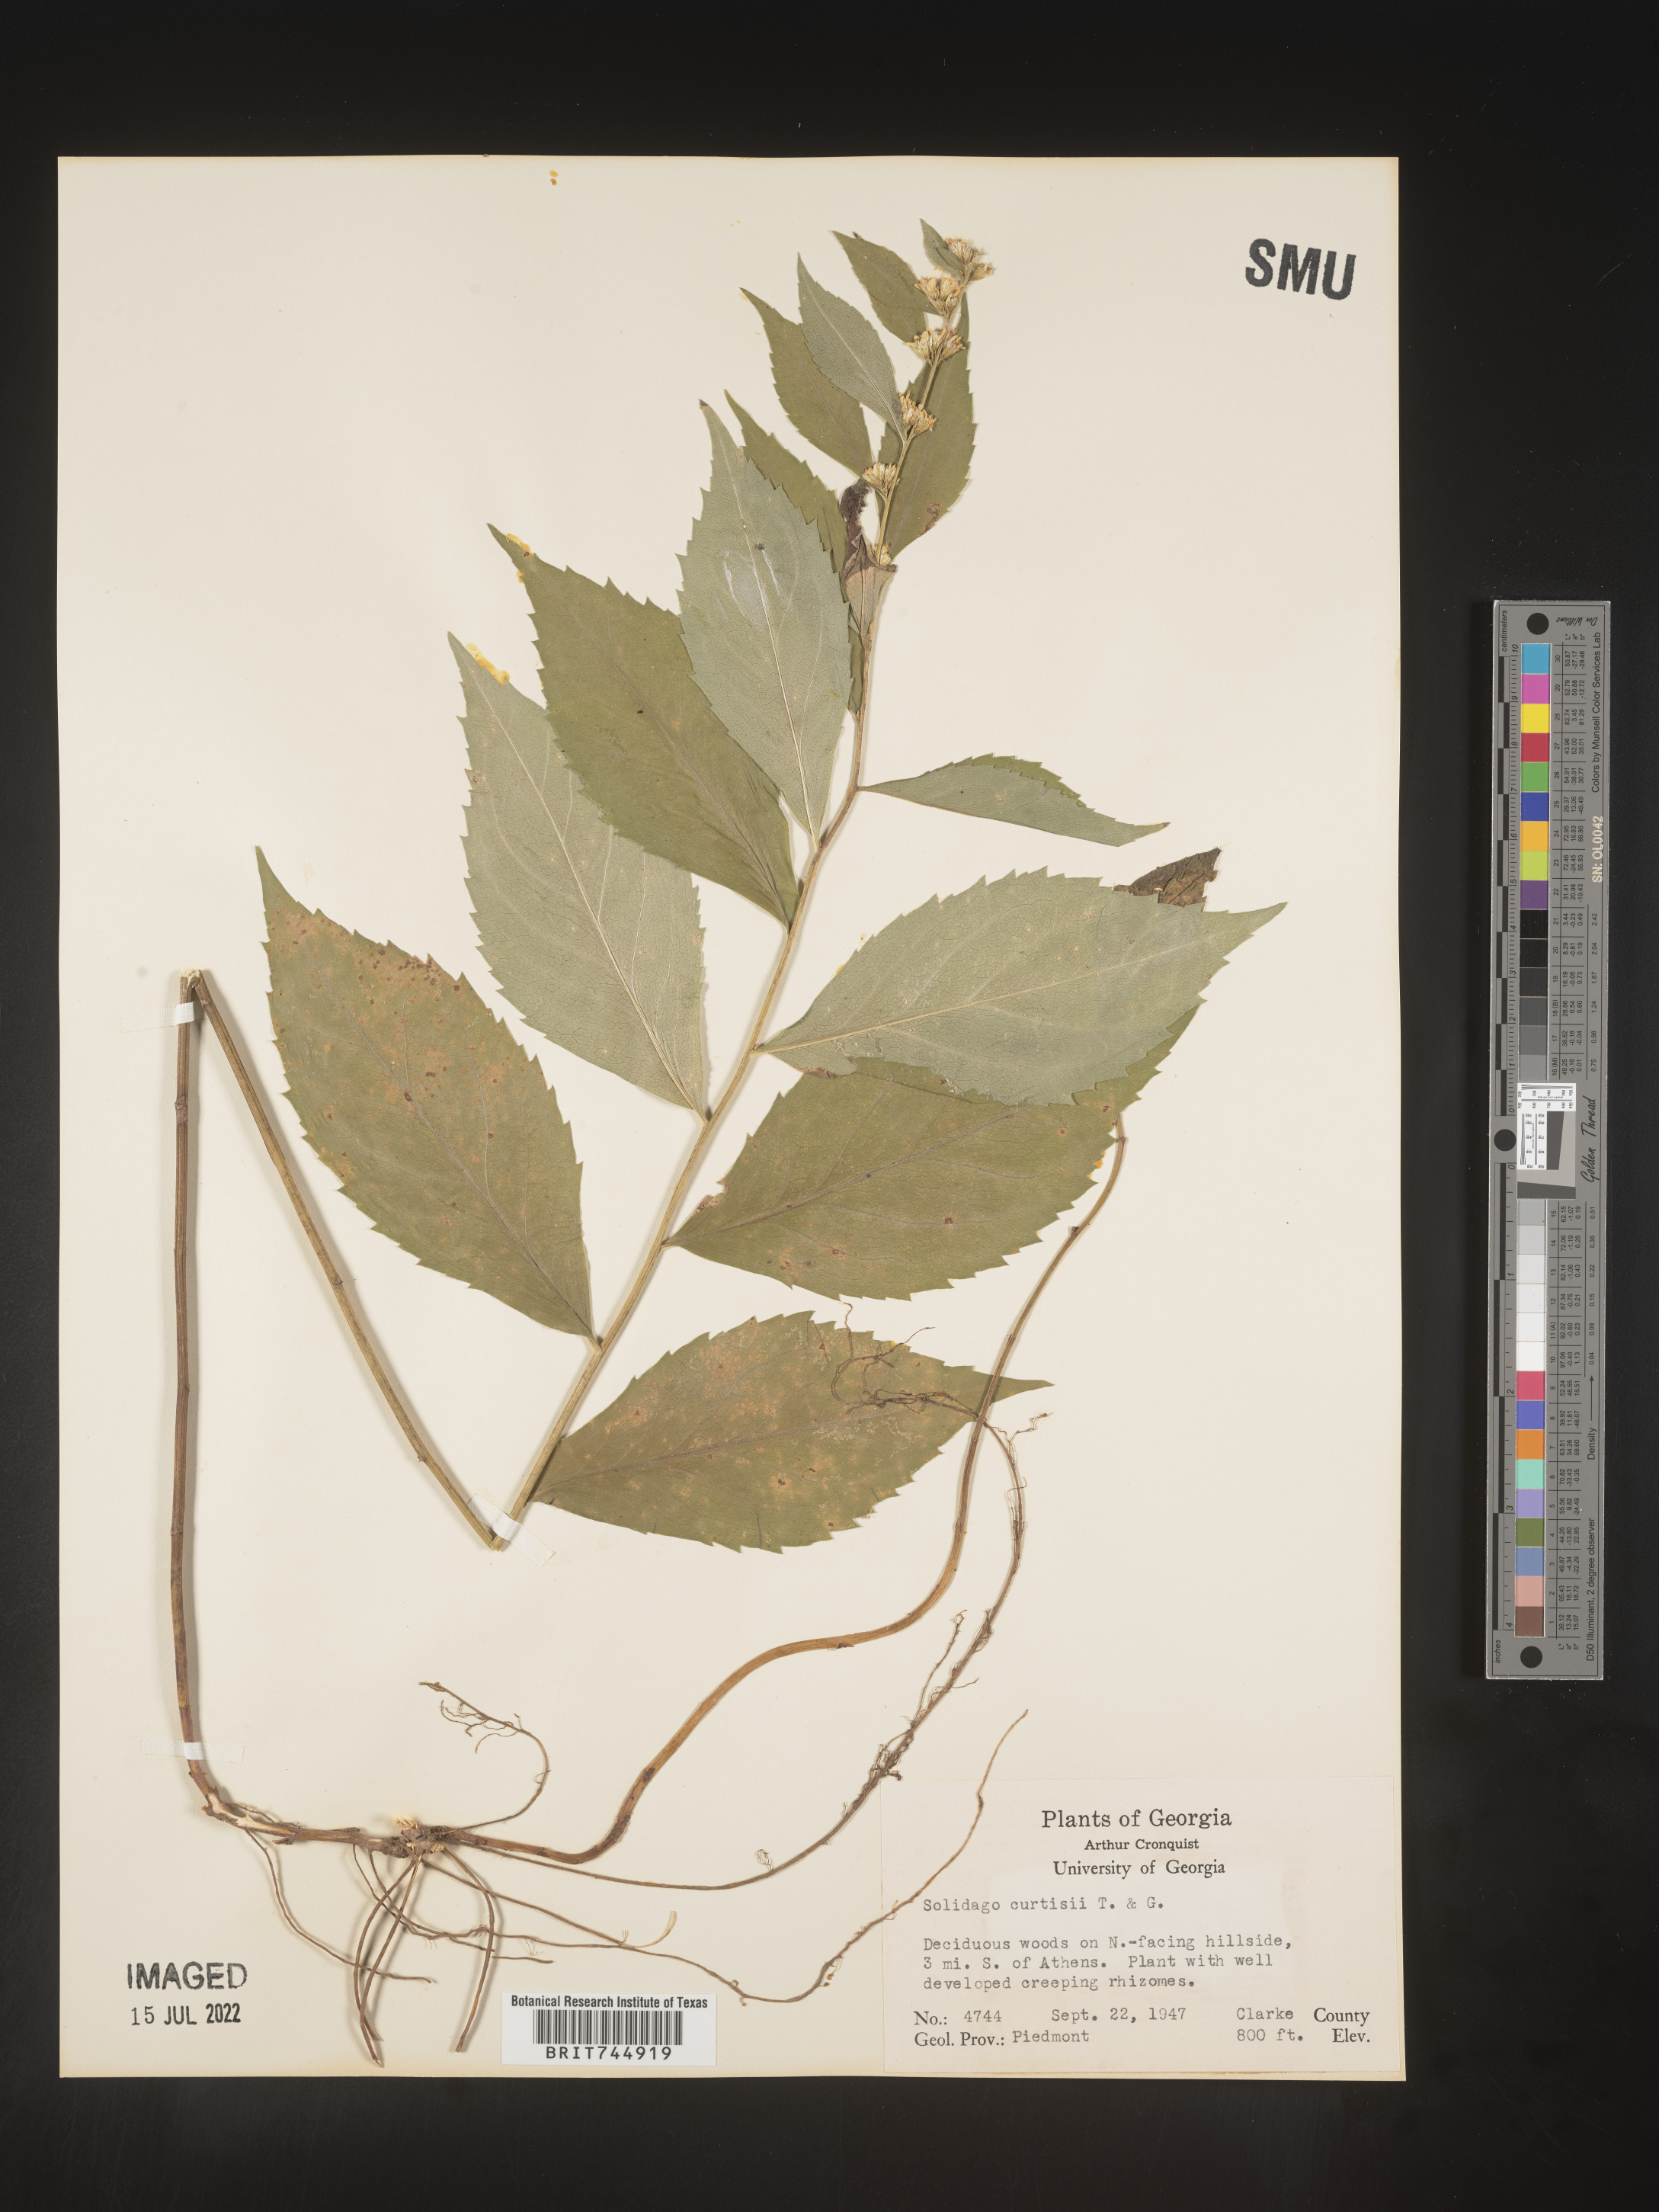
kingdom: Plantae
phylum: Tracheophyta
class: Magnoliopsida
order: Asterales
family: Asteraceae
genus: Solidago
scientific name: Solidago curtisii
